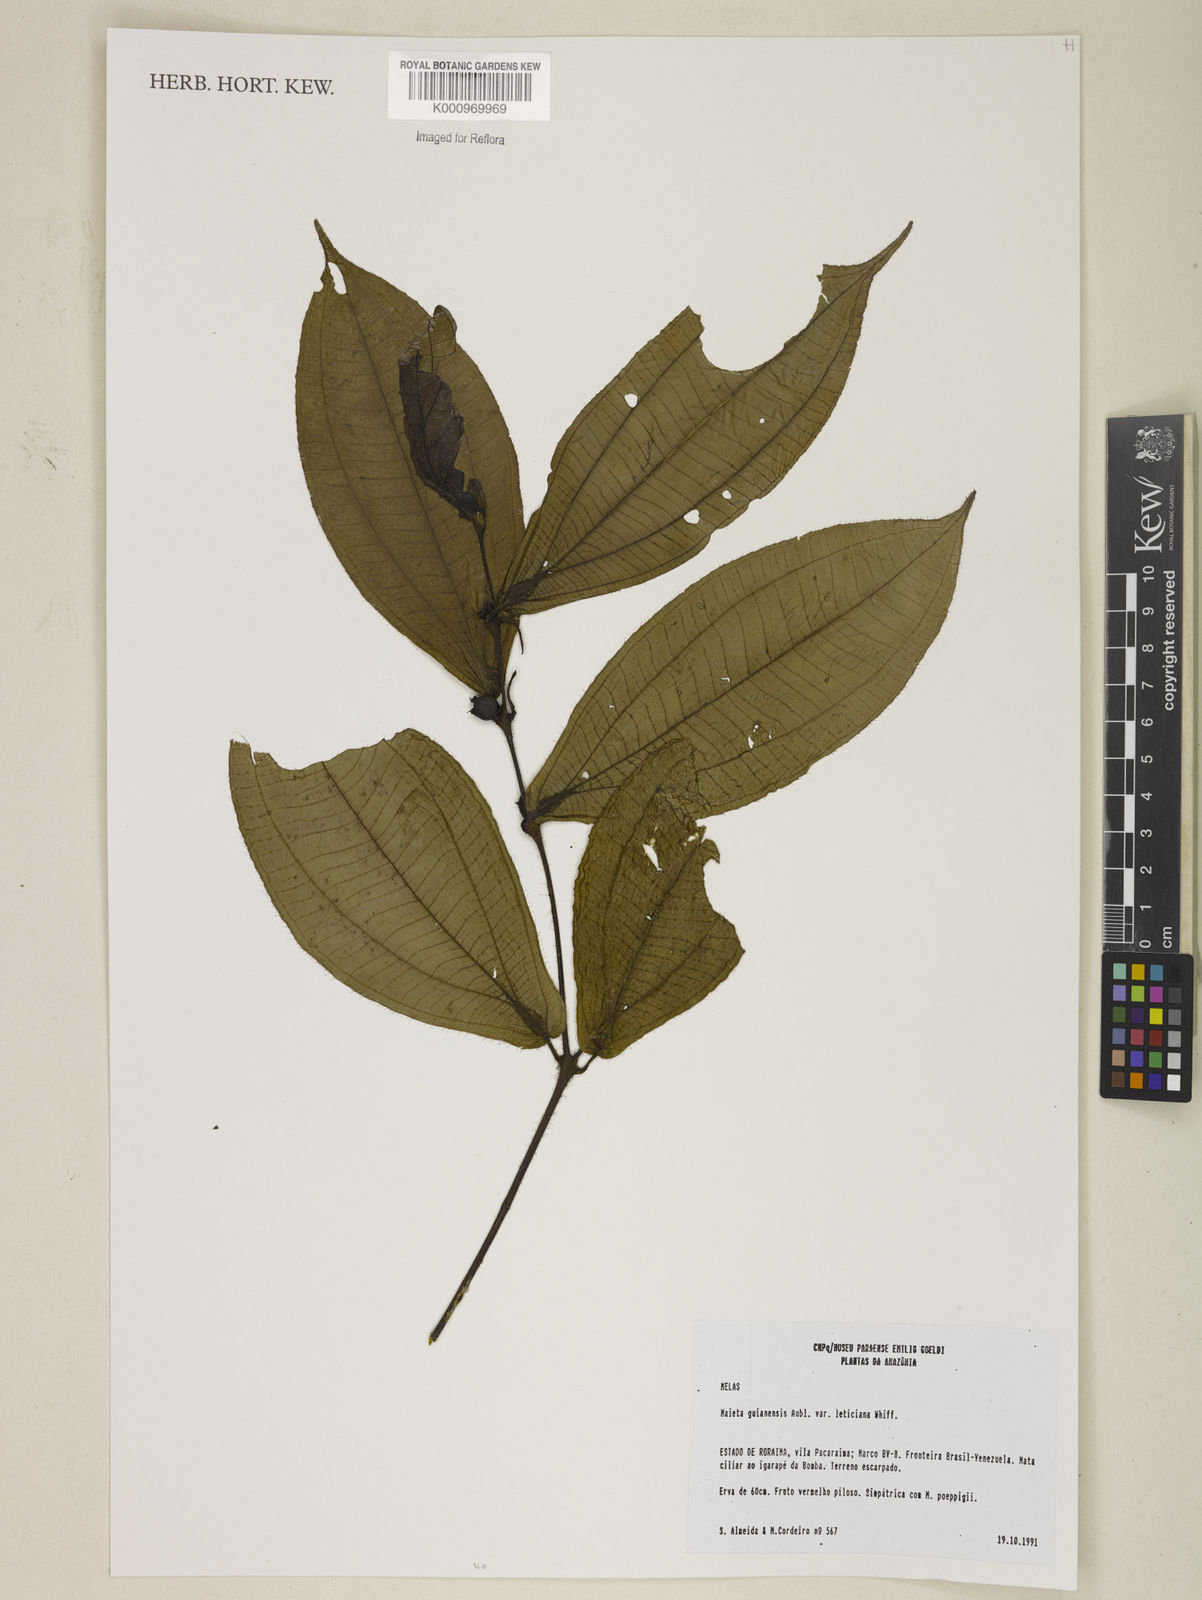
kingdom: Plantae
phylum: Tracheophyta
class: Magnoliopsida
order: Myrtales
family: Melastomataceae
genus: Miconia
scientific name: Miconia mayeta
